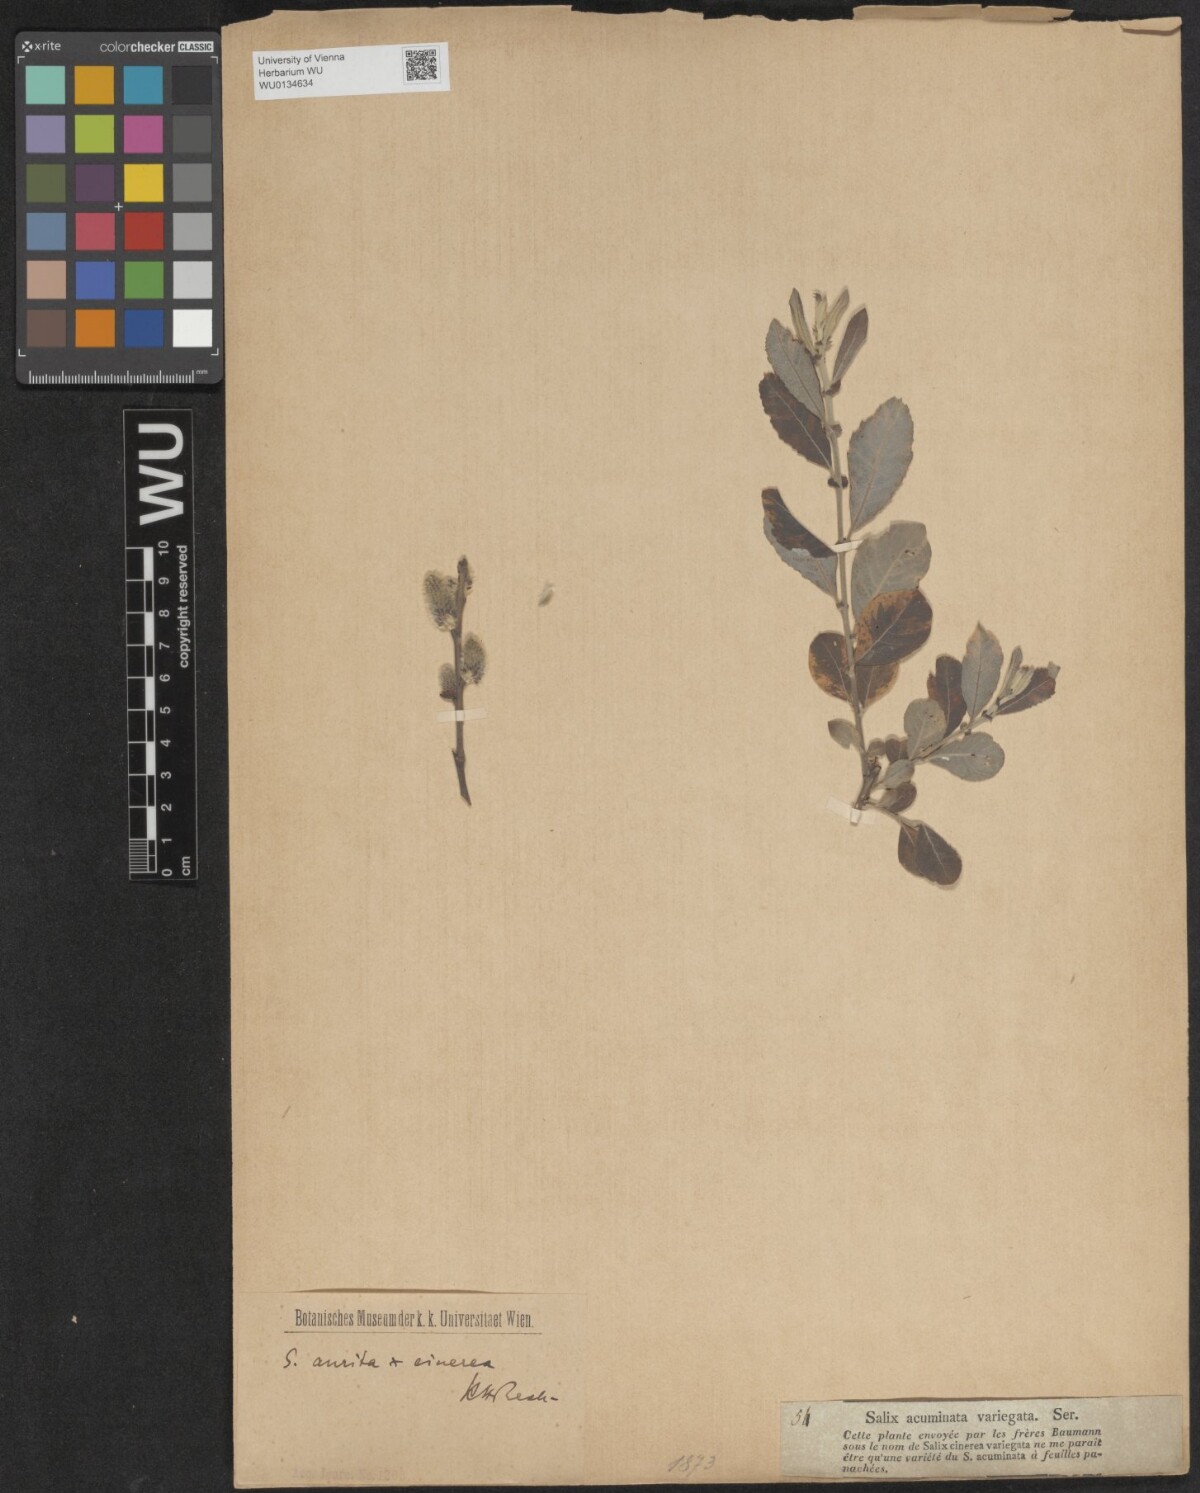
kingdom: Plantae
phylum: Tracheophyta
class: Magnoliopsida
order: Malpighiales
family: Salicaceae
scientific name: Salicaceae
